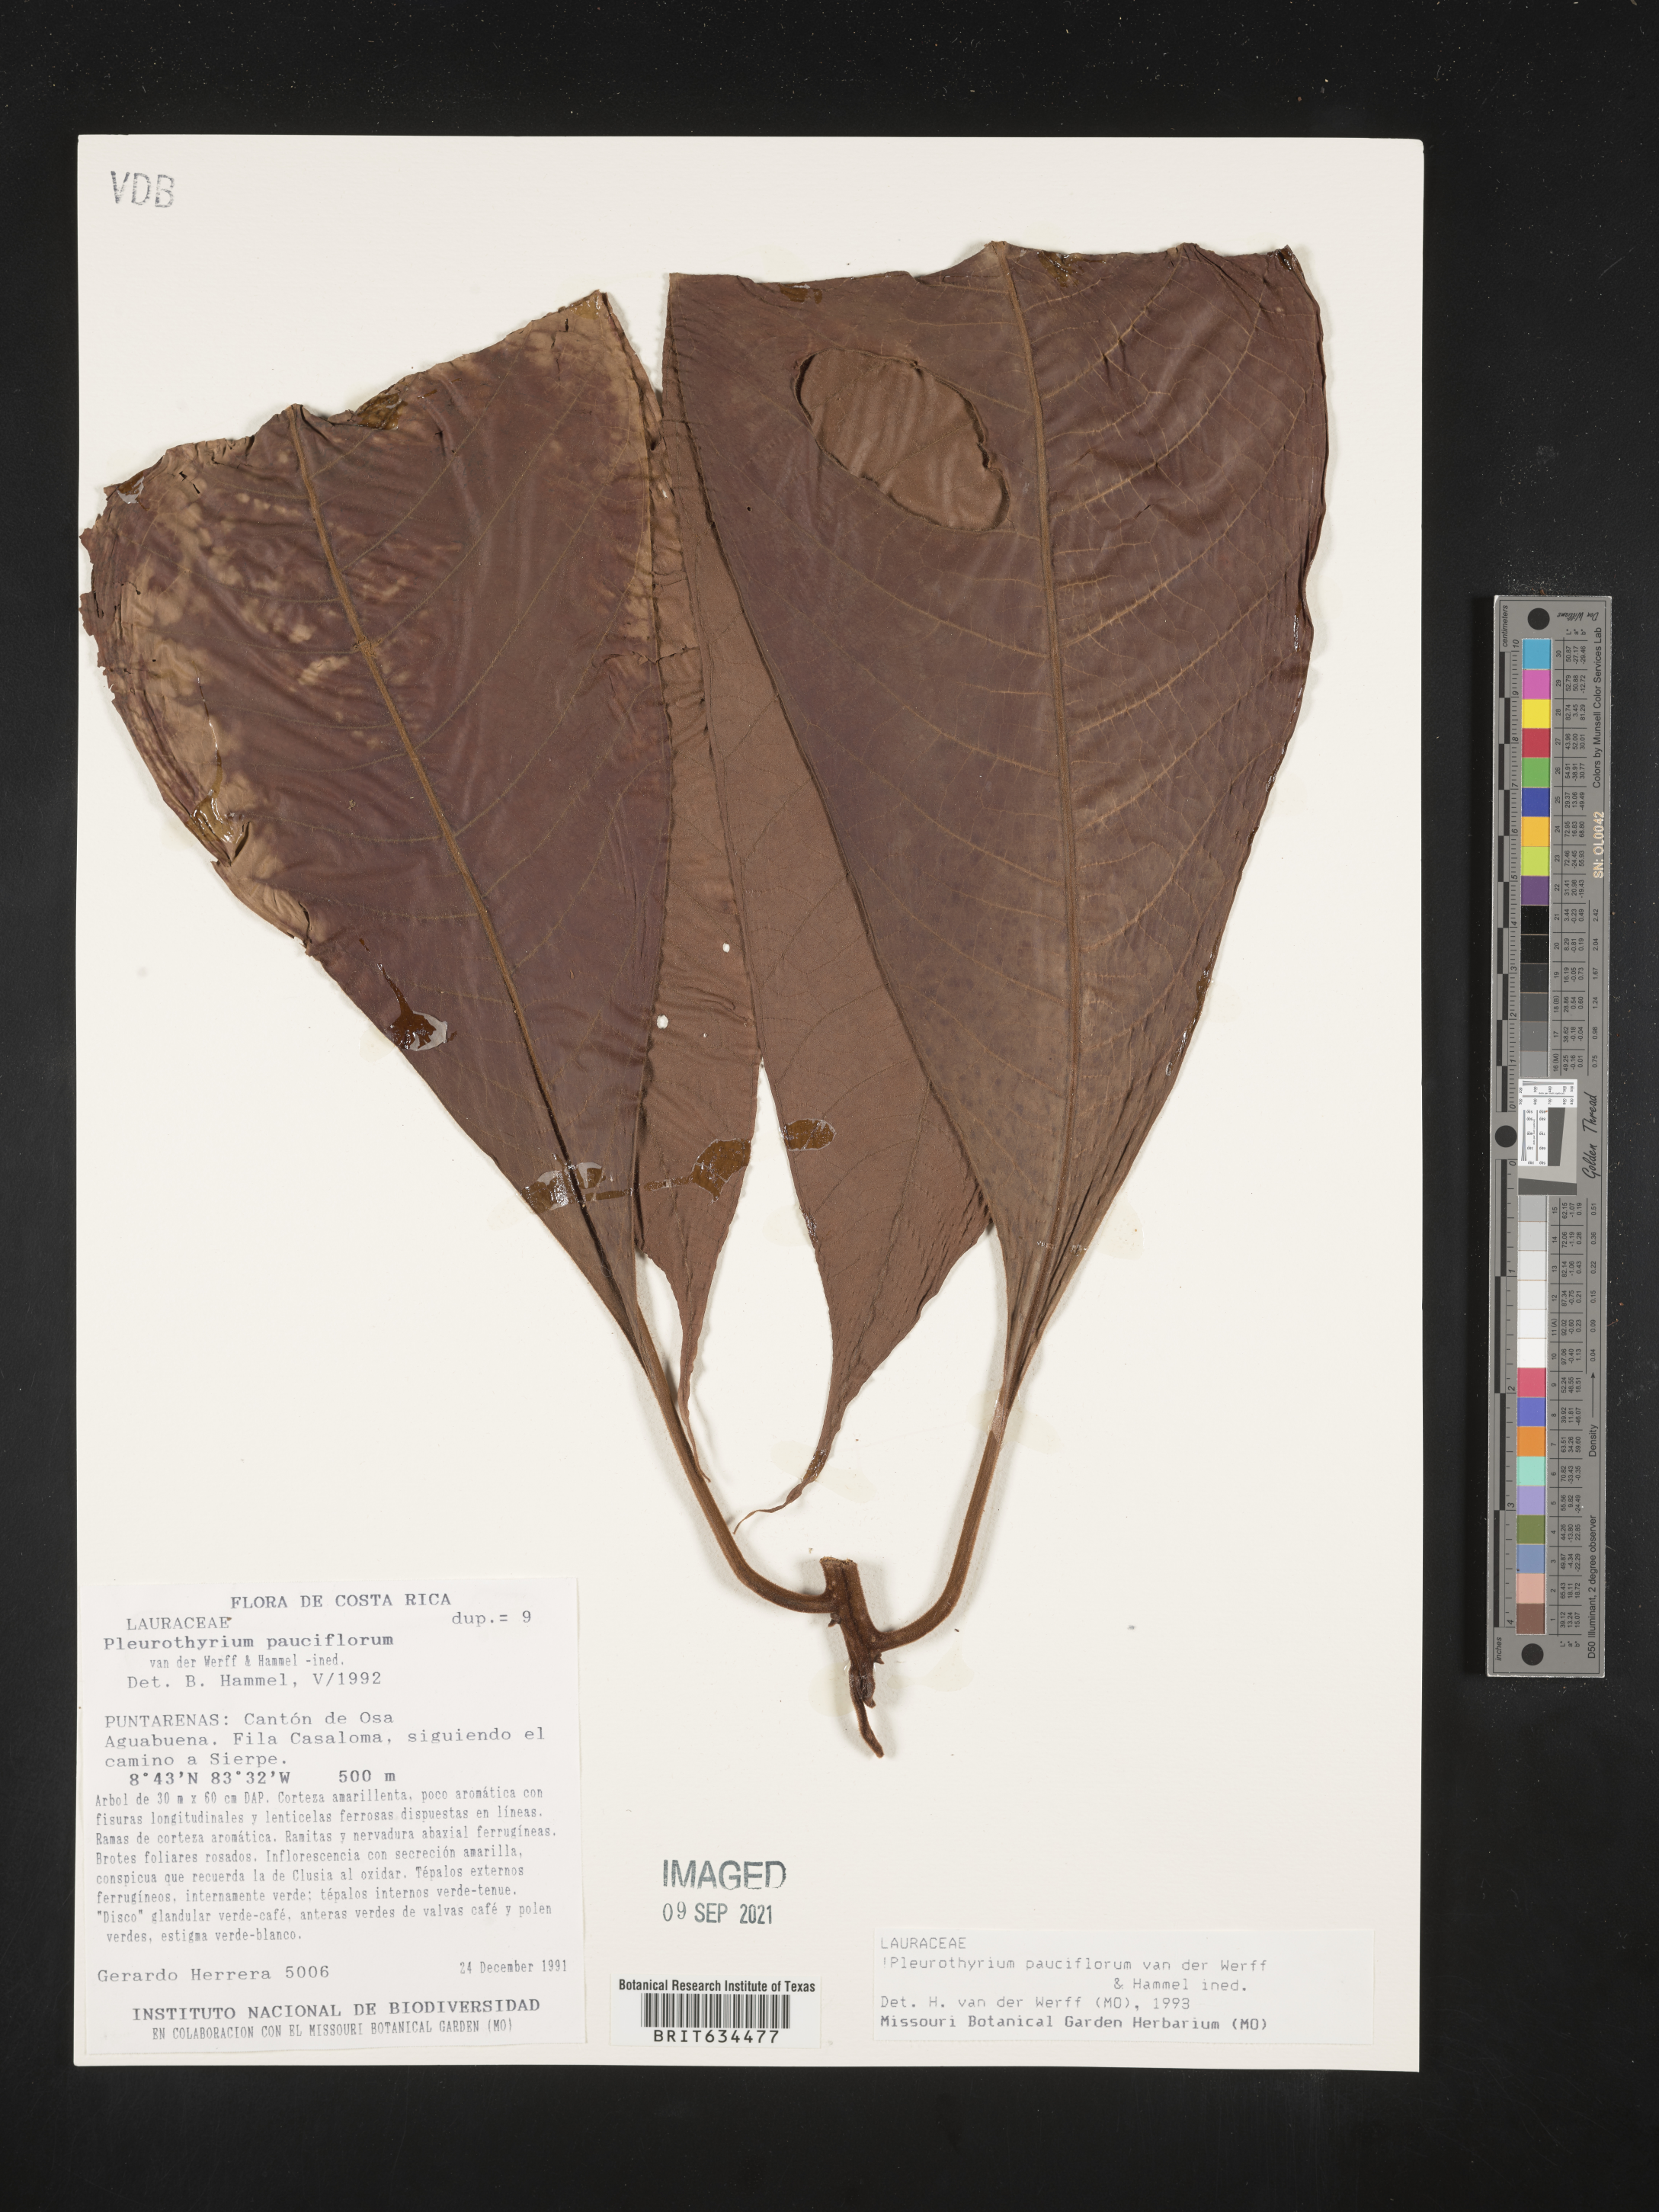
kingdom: Plantae
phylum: Tracheophyta
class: Magnoliopsida
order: Laurales
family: Lauraceae
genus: Pleurothyrium
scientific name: Pleurothyrium
